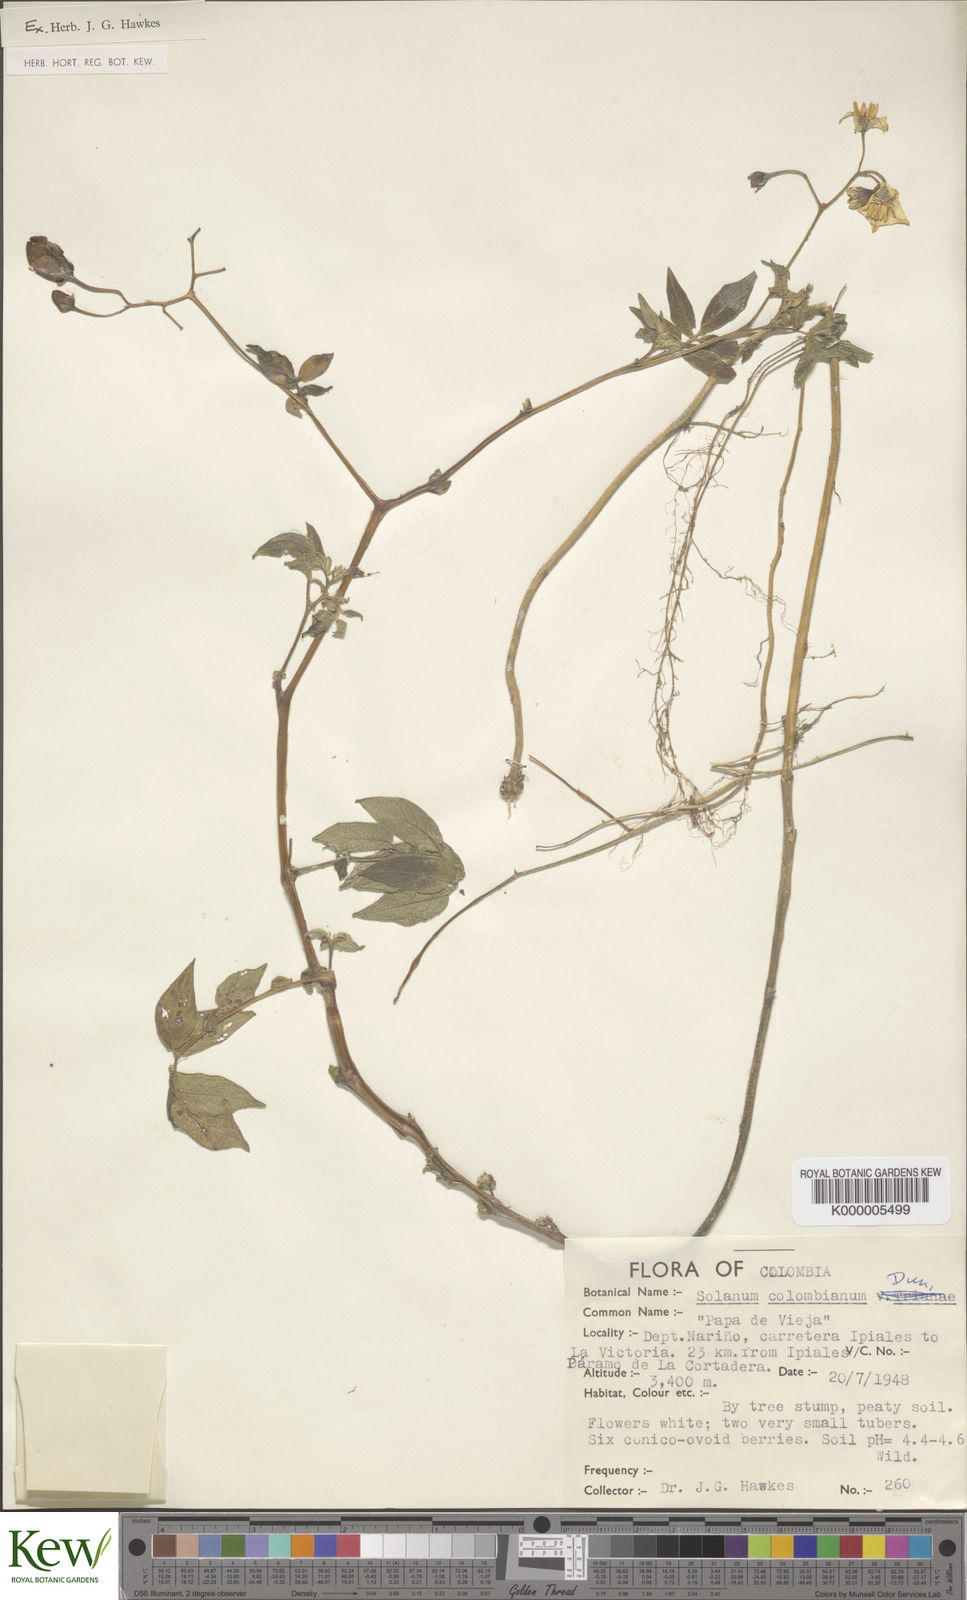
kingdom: Plantae
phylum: Tracheophyta
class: Magnoliopsida
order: Solanales
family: Solanaceae
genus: Solanum
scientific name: Solanum colombianum
